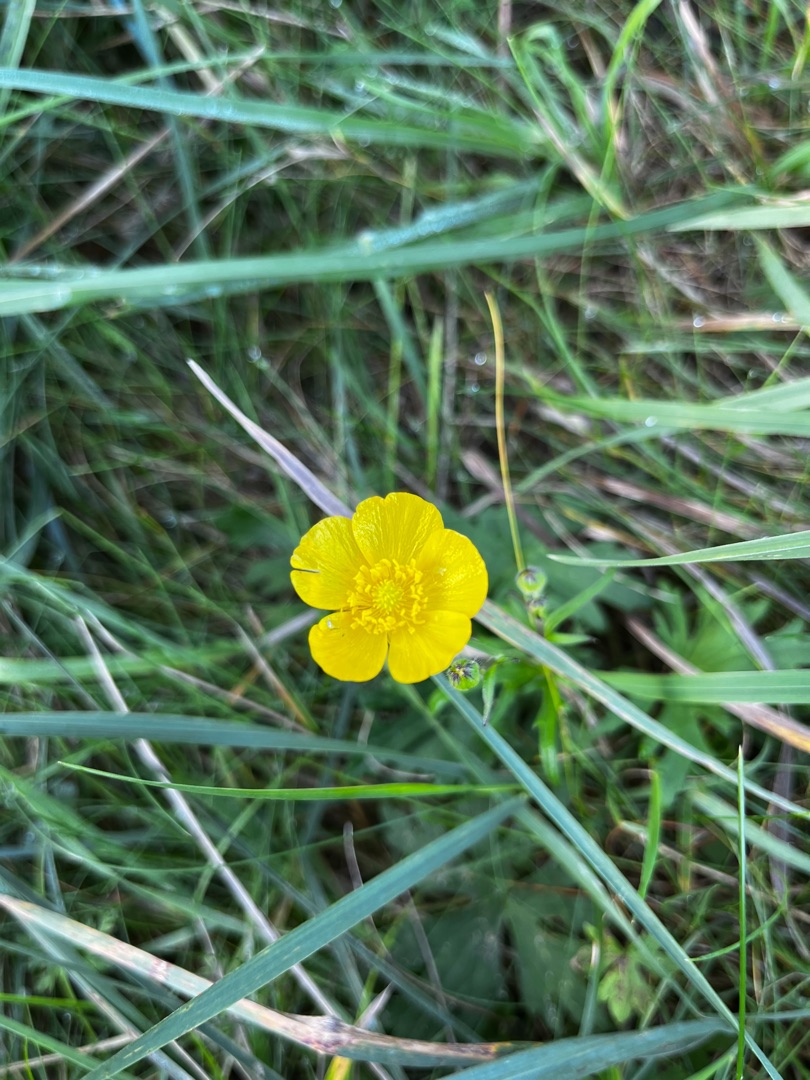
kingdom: Plantae
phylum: Tracheophyta
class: Magnoliopsida
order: Ranunculales
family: Ranunculaceae
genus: Ranunculus
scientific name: Ranunculus acris
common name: Bidende ranunkel
